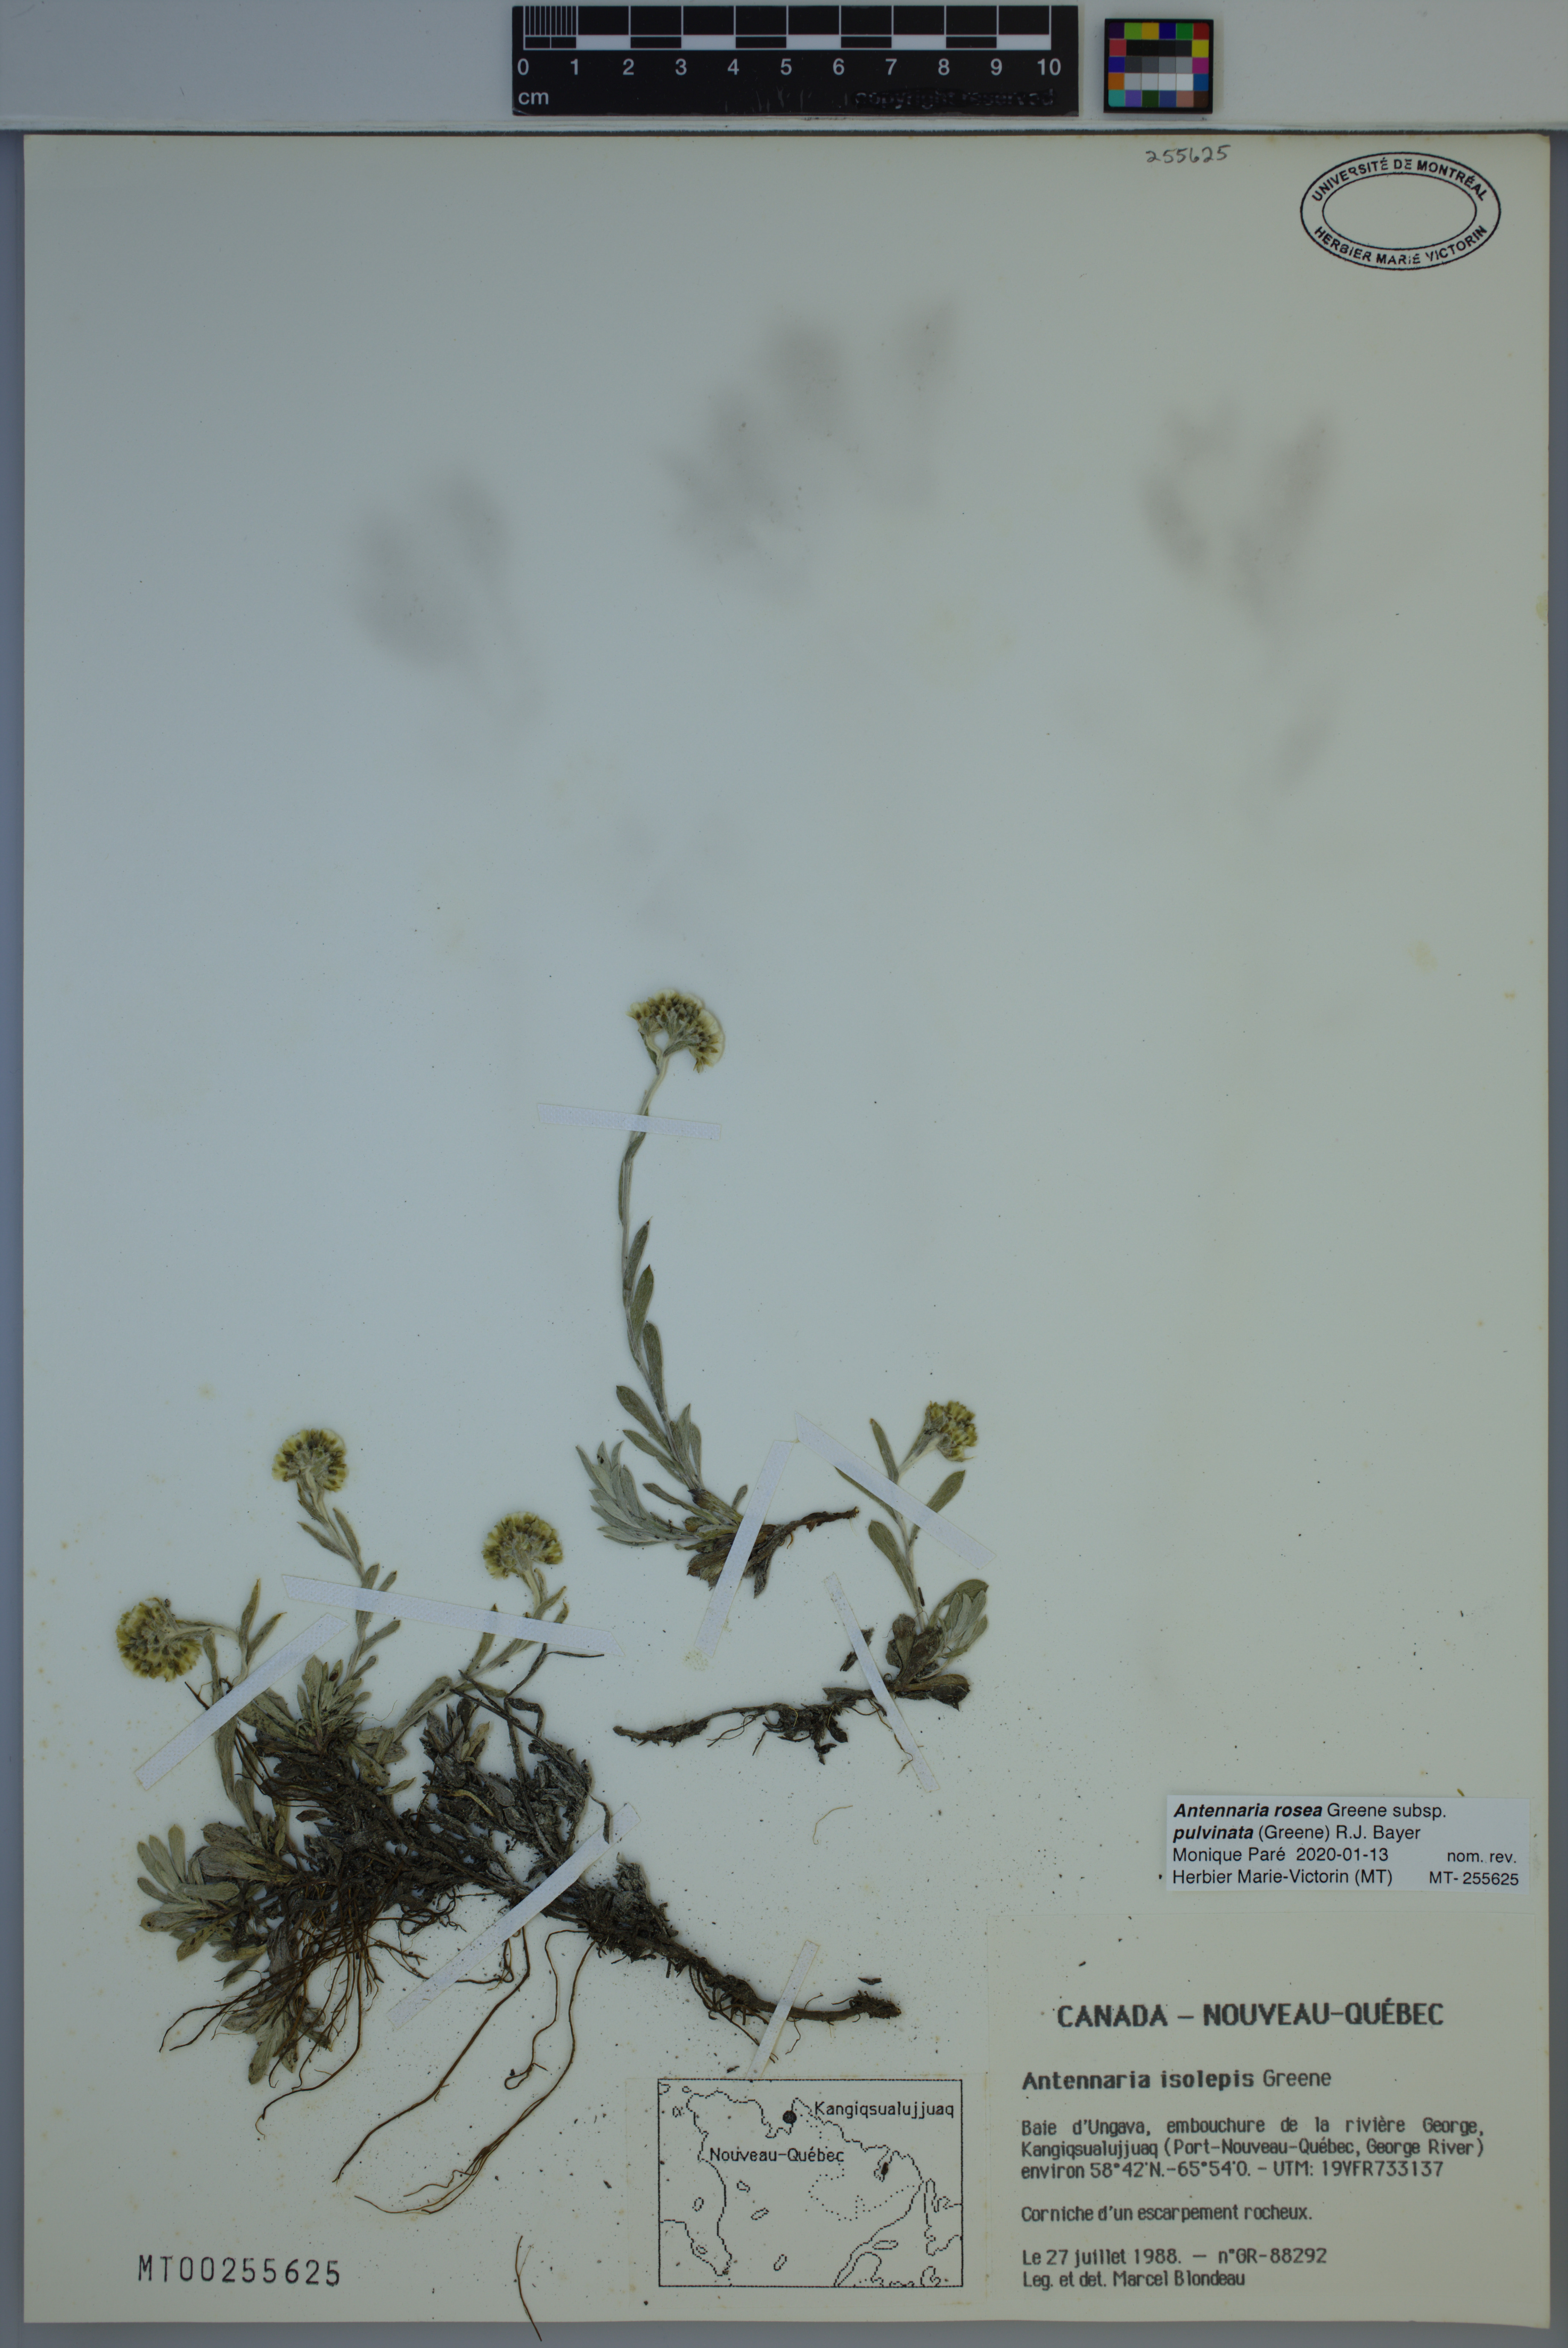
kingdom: Plantae
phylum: Tracheophyta
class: Magnoliopsida
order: Asterales
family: Asteraceae
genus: Antennaria
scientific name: Antennaria rosea
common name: Rosy pussytoes
